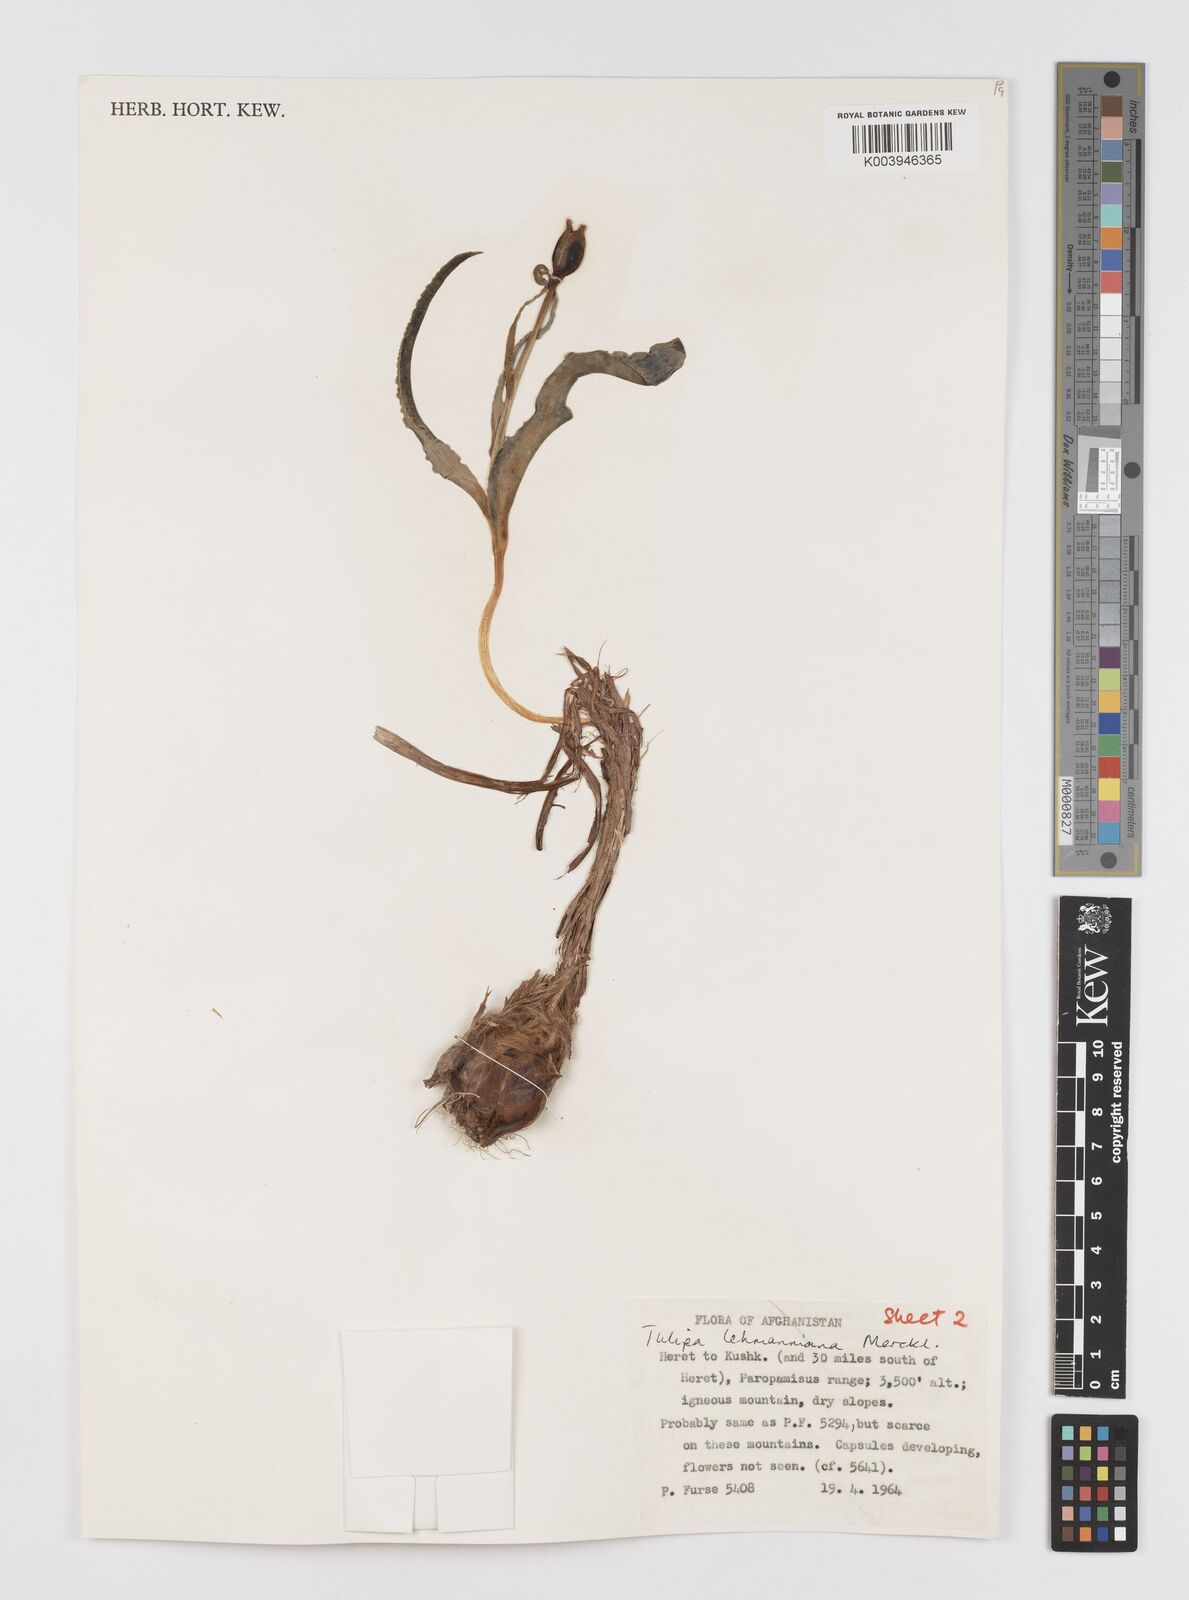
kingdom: Plantae
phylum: Tracheophyta
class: Liliopsida
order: Liliales
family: Liliaceae
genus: Tulipa
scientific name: Tulipa lehmanniana
